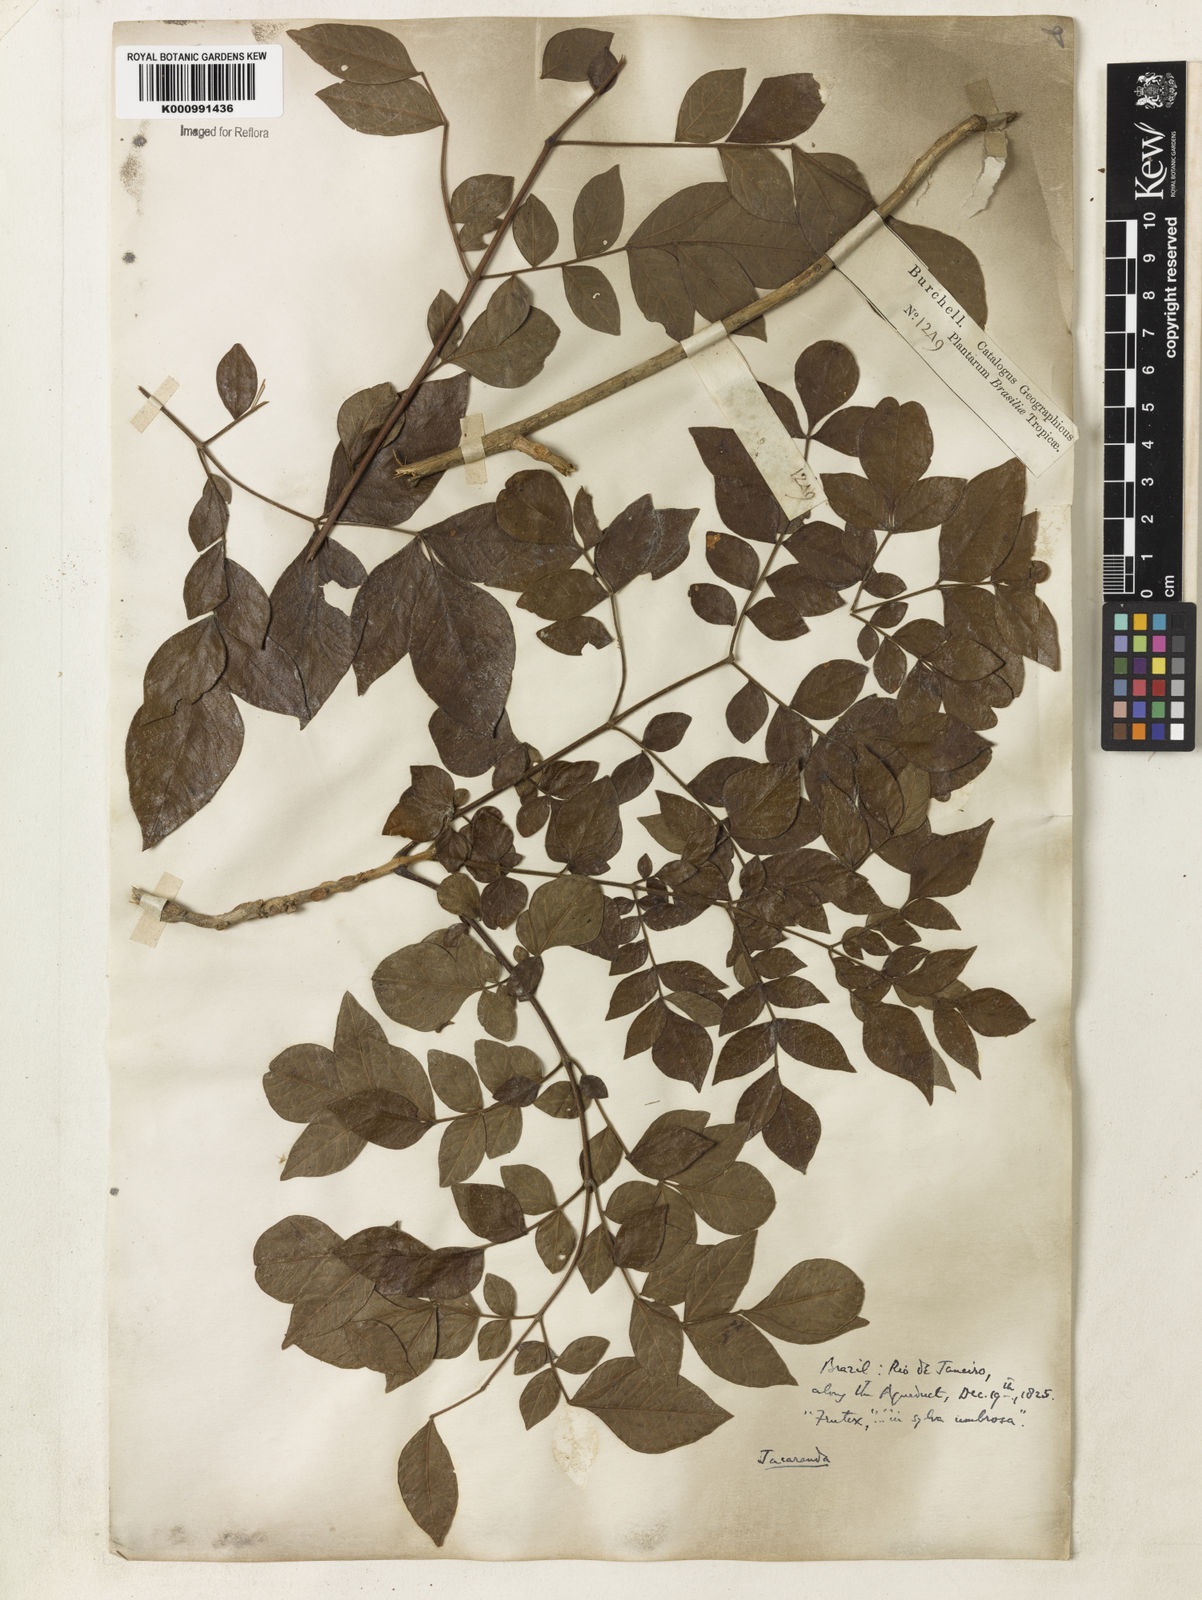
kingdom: Plantae
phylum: Tracheophyta
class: Magnoliopsida
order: Lamiales
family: Bignoniaceae
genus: Jacaranda
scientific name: Jacaranda jasminoides
